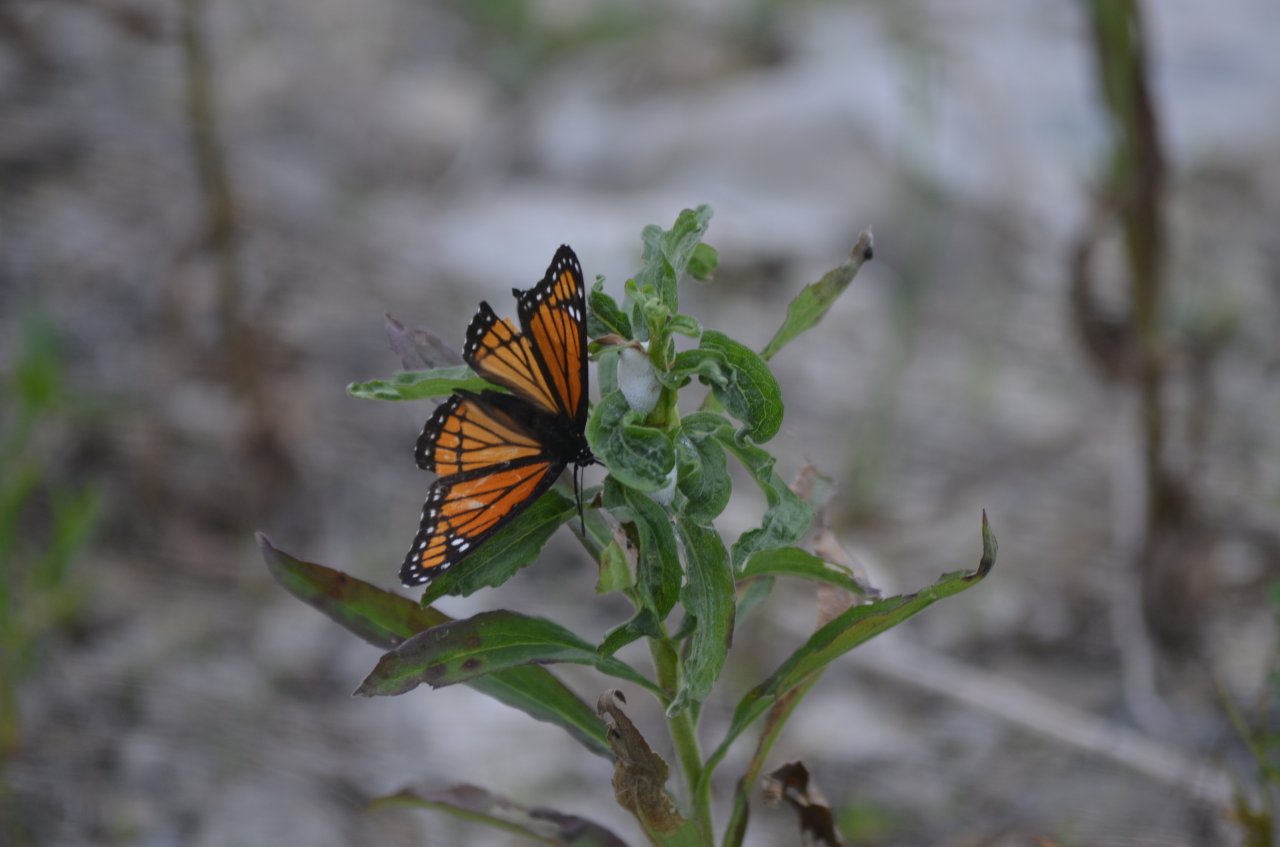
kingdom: Animalia
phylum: Arthropoda
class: Insecta
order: Lepidoptera
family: Nymphalidae
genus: Limenitis
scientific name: Limenitis archippus
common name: Viceroy
